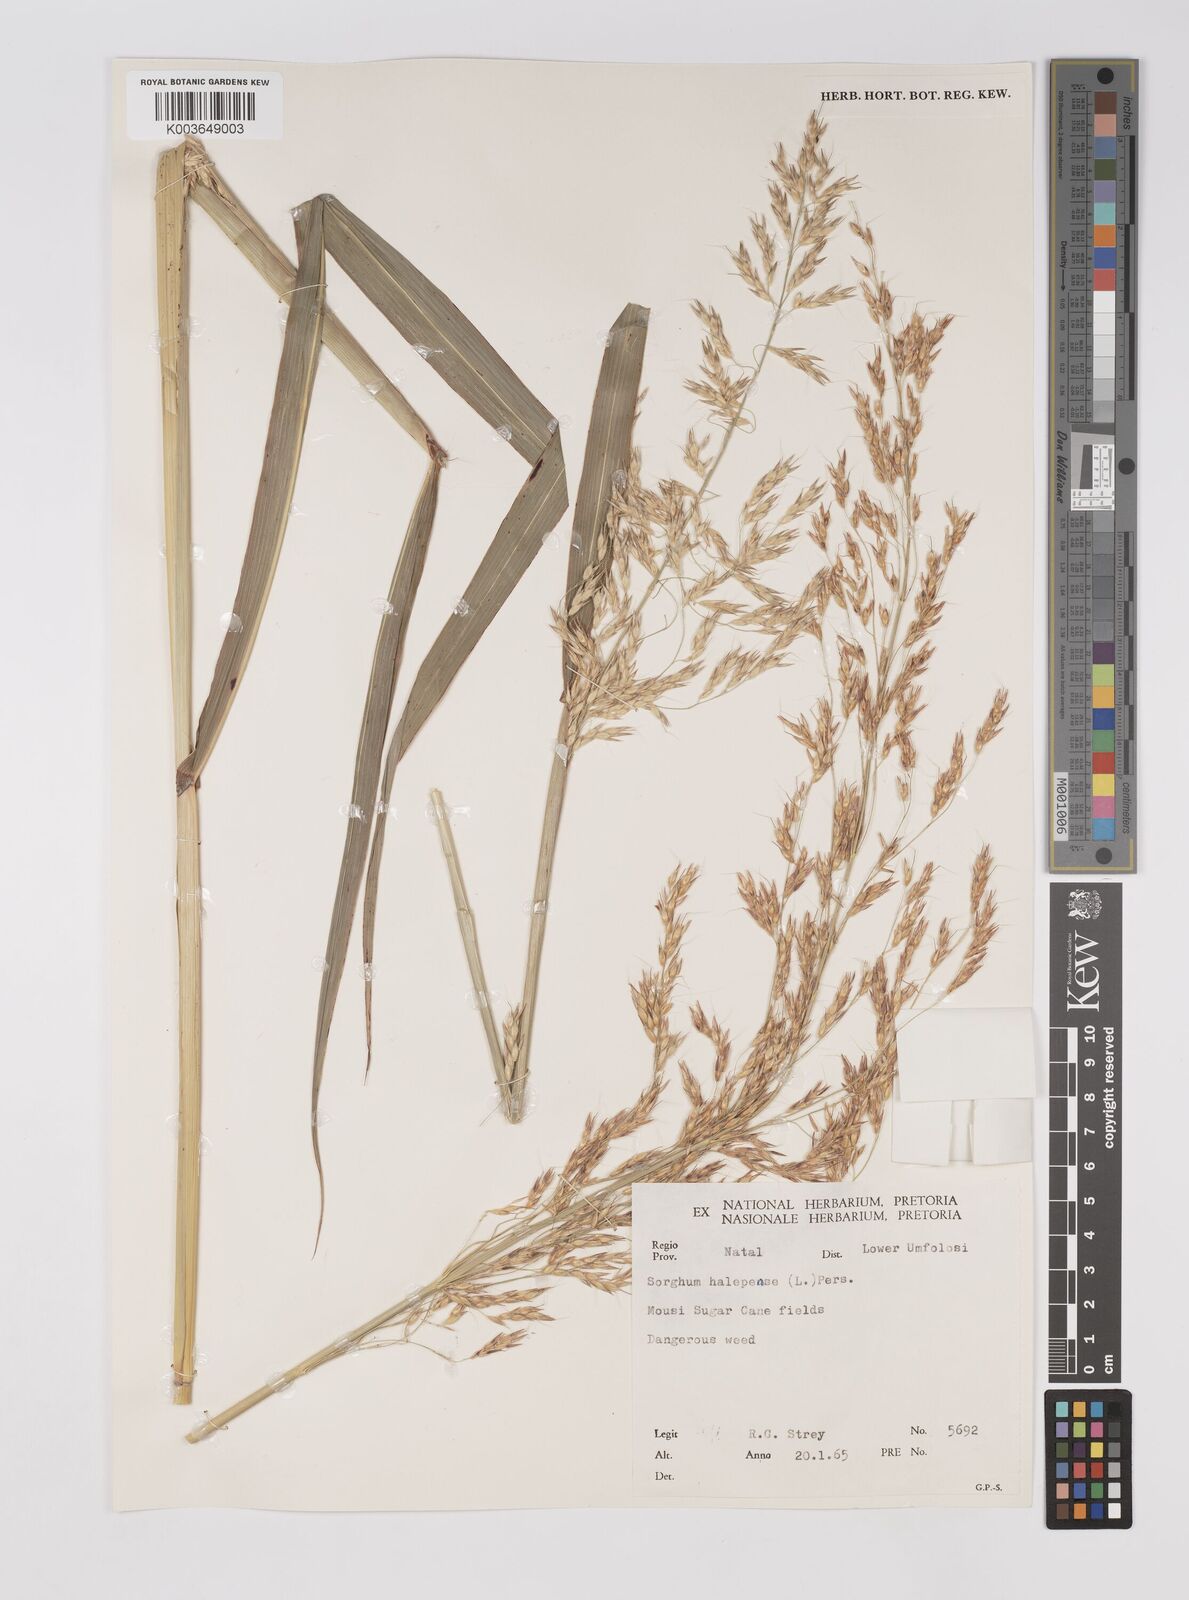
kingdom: Plantae
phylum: Tracheophyta
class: Liliopsida
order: Poales
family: Poaceae
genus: Sorghum
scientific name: Sorghum halepense
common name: Johnson-grass
